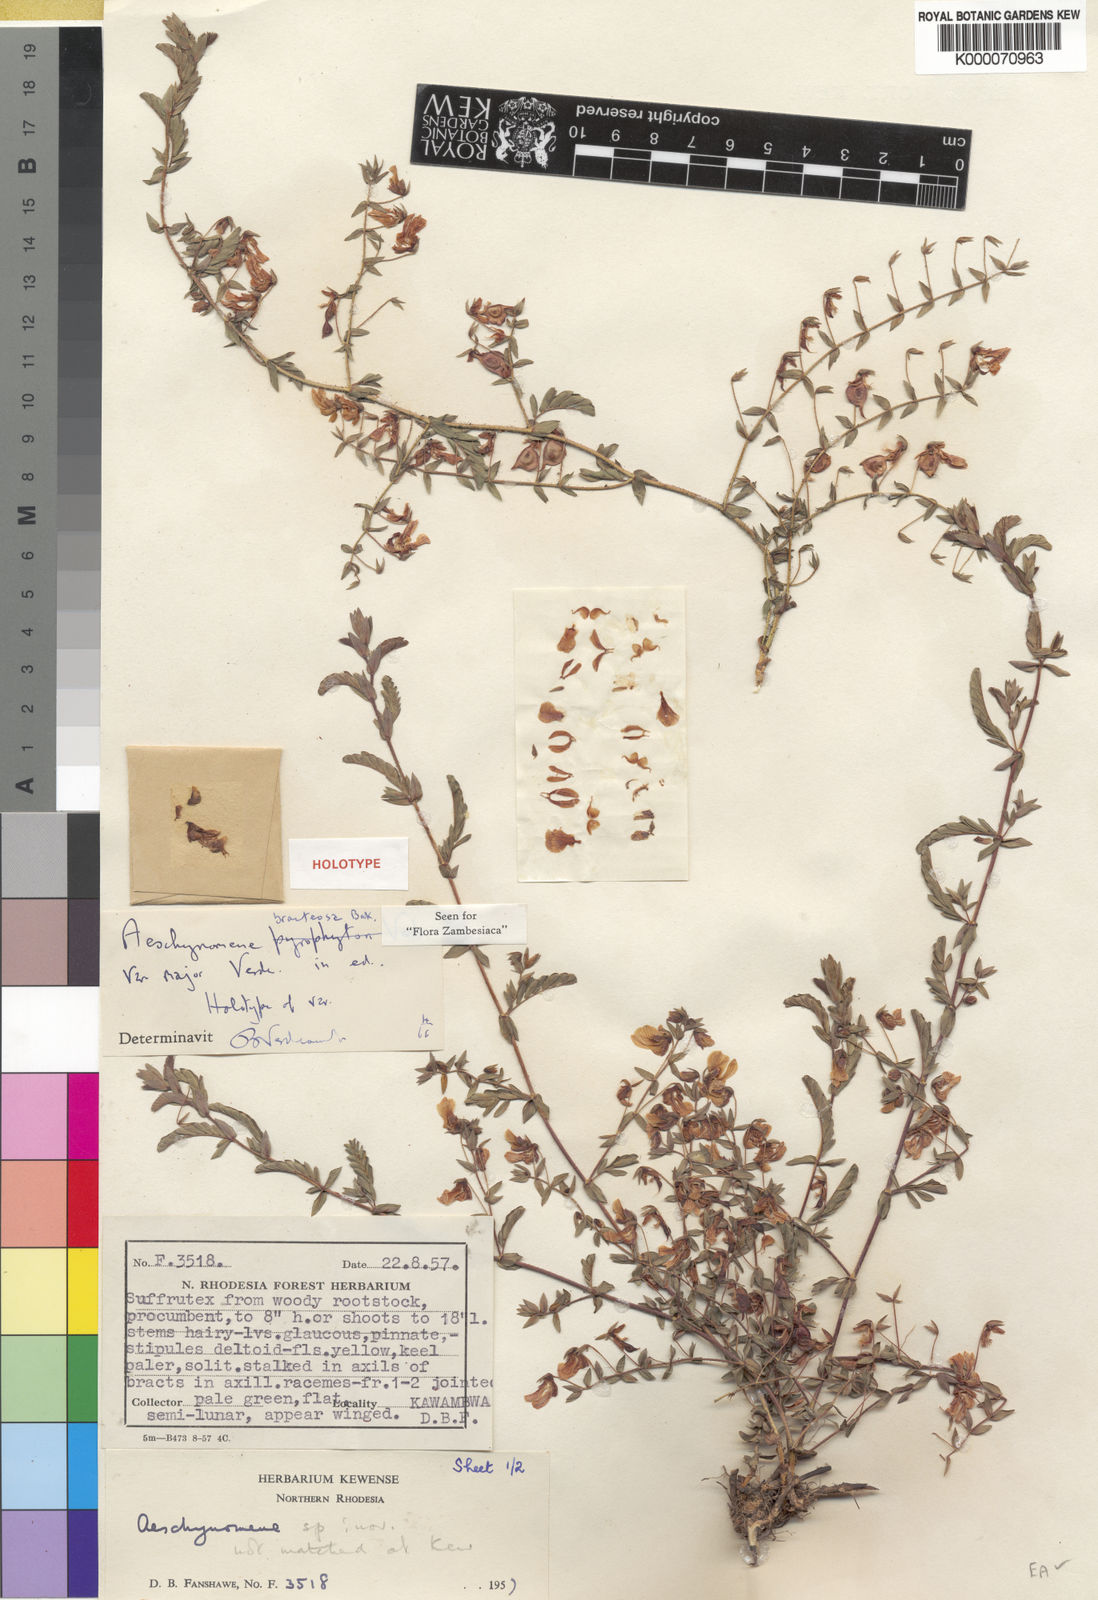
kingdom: Plantae
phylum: Tracheophyta
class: Magnoliopsida
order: Fabales
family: Fabaceae
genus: Aeschynomene
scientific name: Aeschynomene bracteosa
